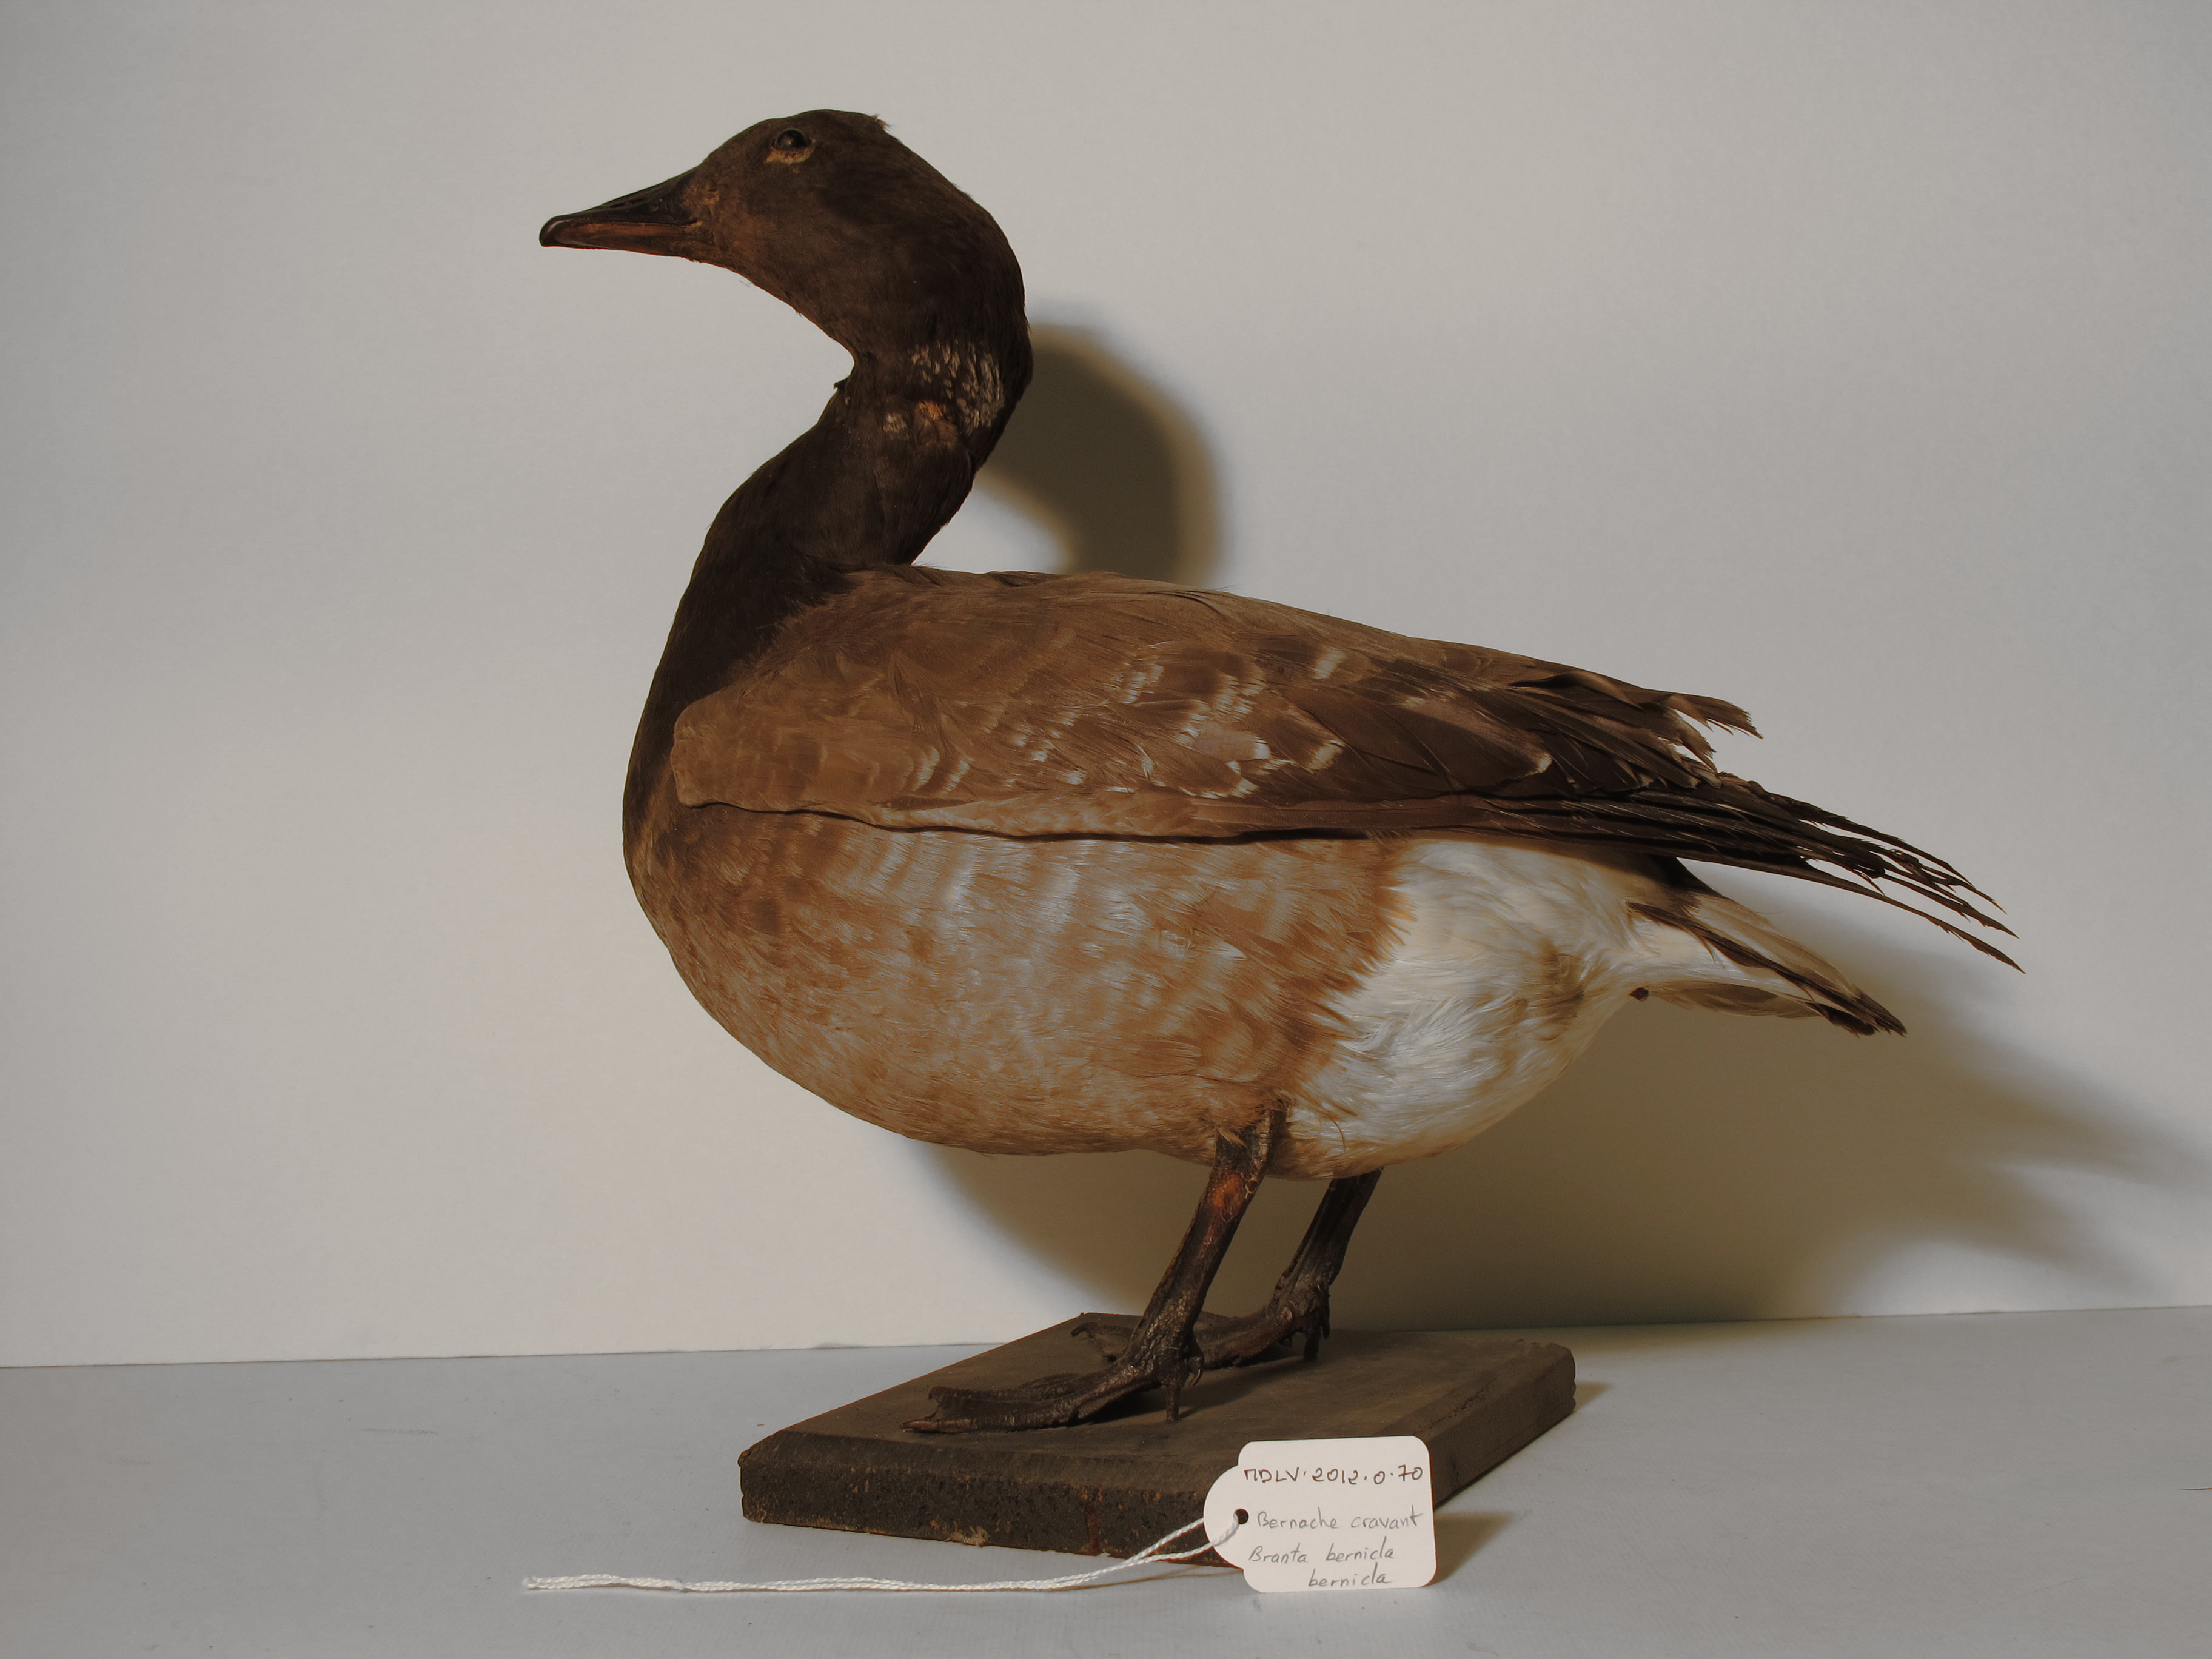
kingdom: Animalia
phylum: Chordata
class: Aves
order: Anseriformes
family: Anatidae
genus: Branta
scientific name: Branta bernicla
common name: Brent Goose
